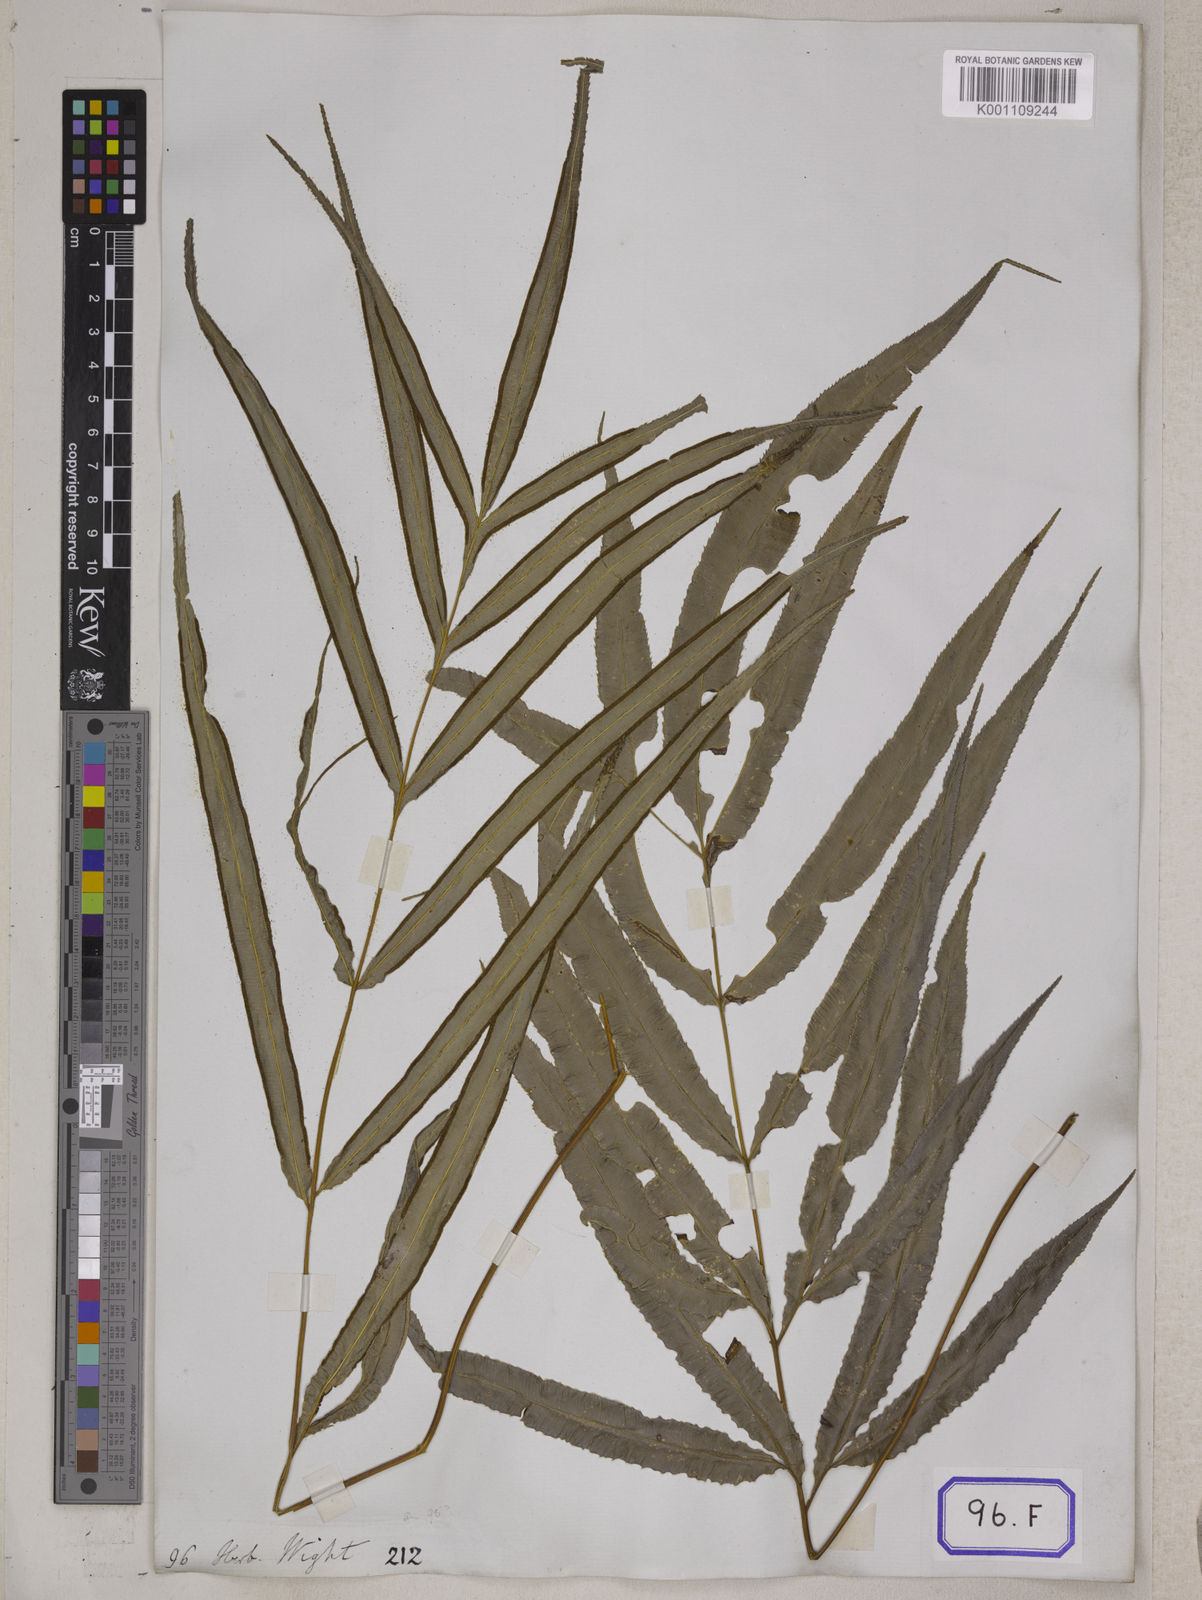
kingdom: Plantae
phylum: Tracheophyta
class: Polypodiopsida
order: Polypodiales
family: Pteridaceae
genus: Pteris
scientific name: Pteris cretica
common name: Ribbon fern
